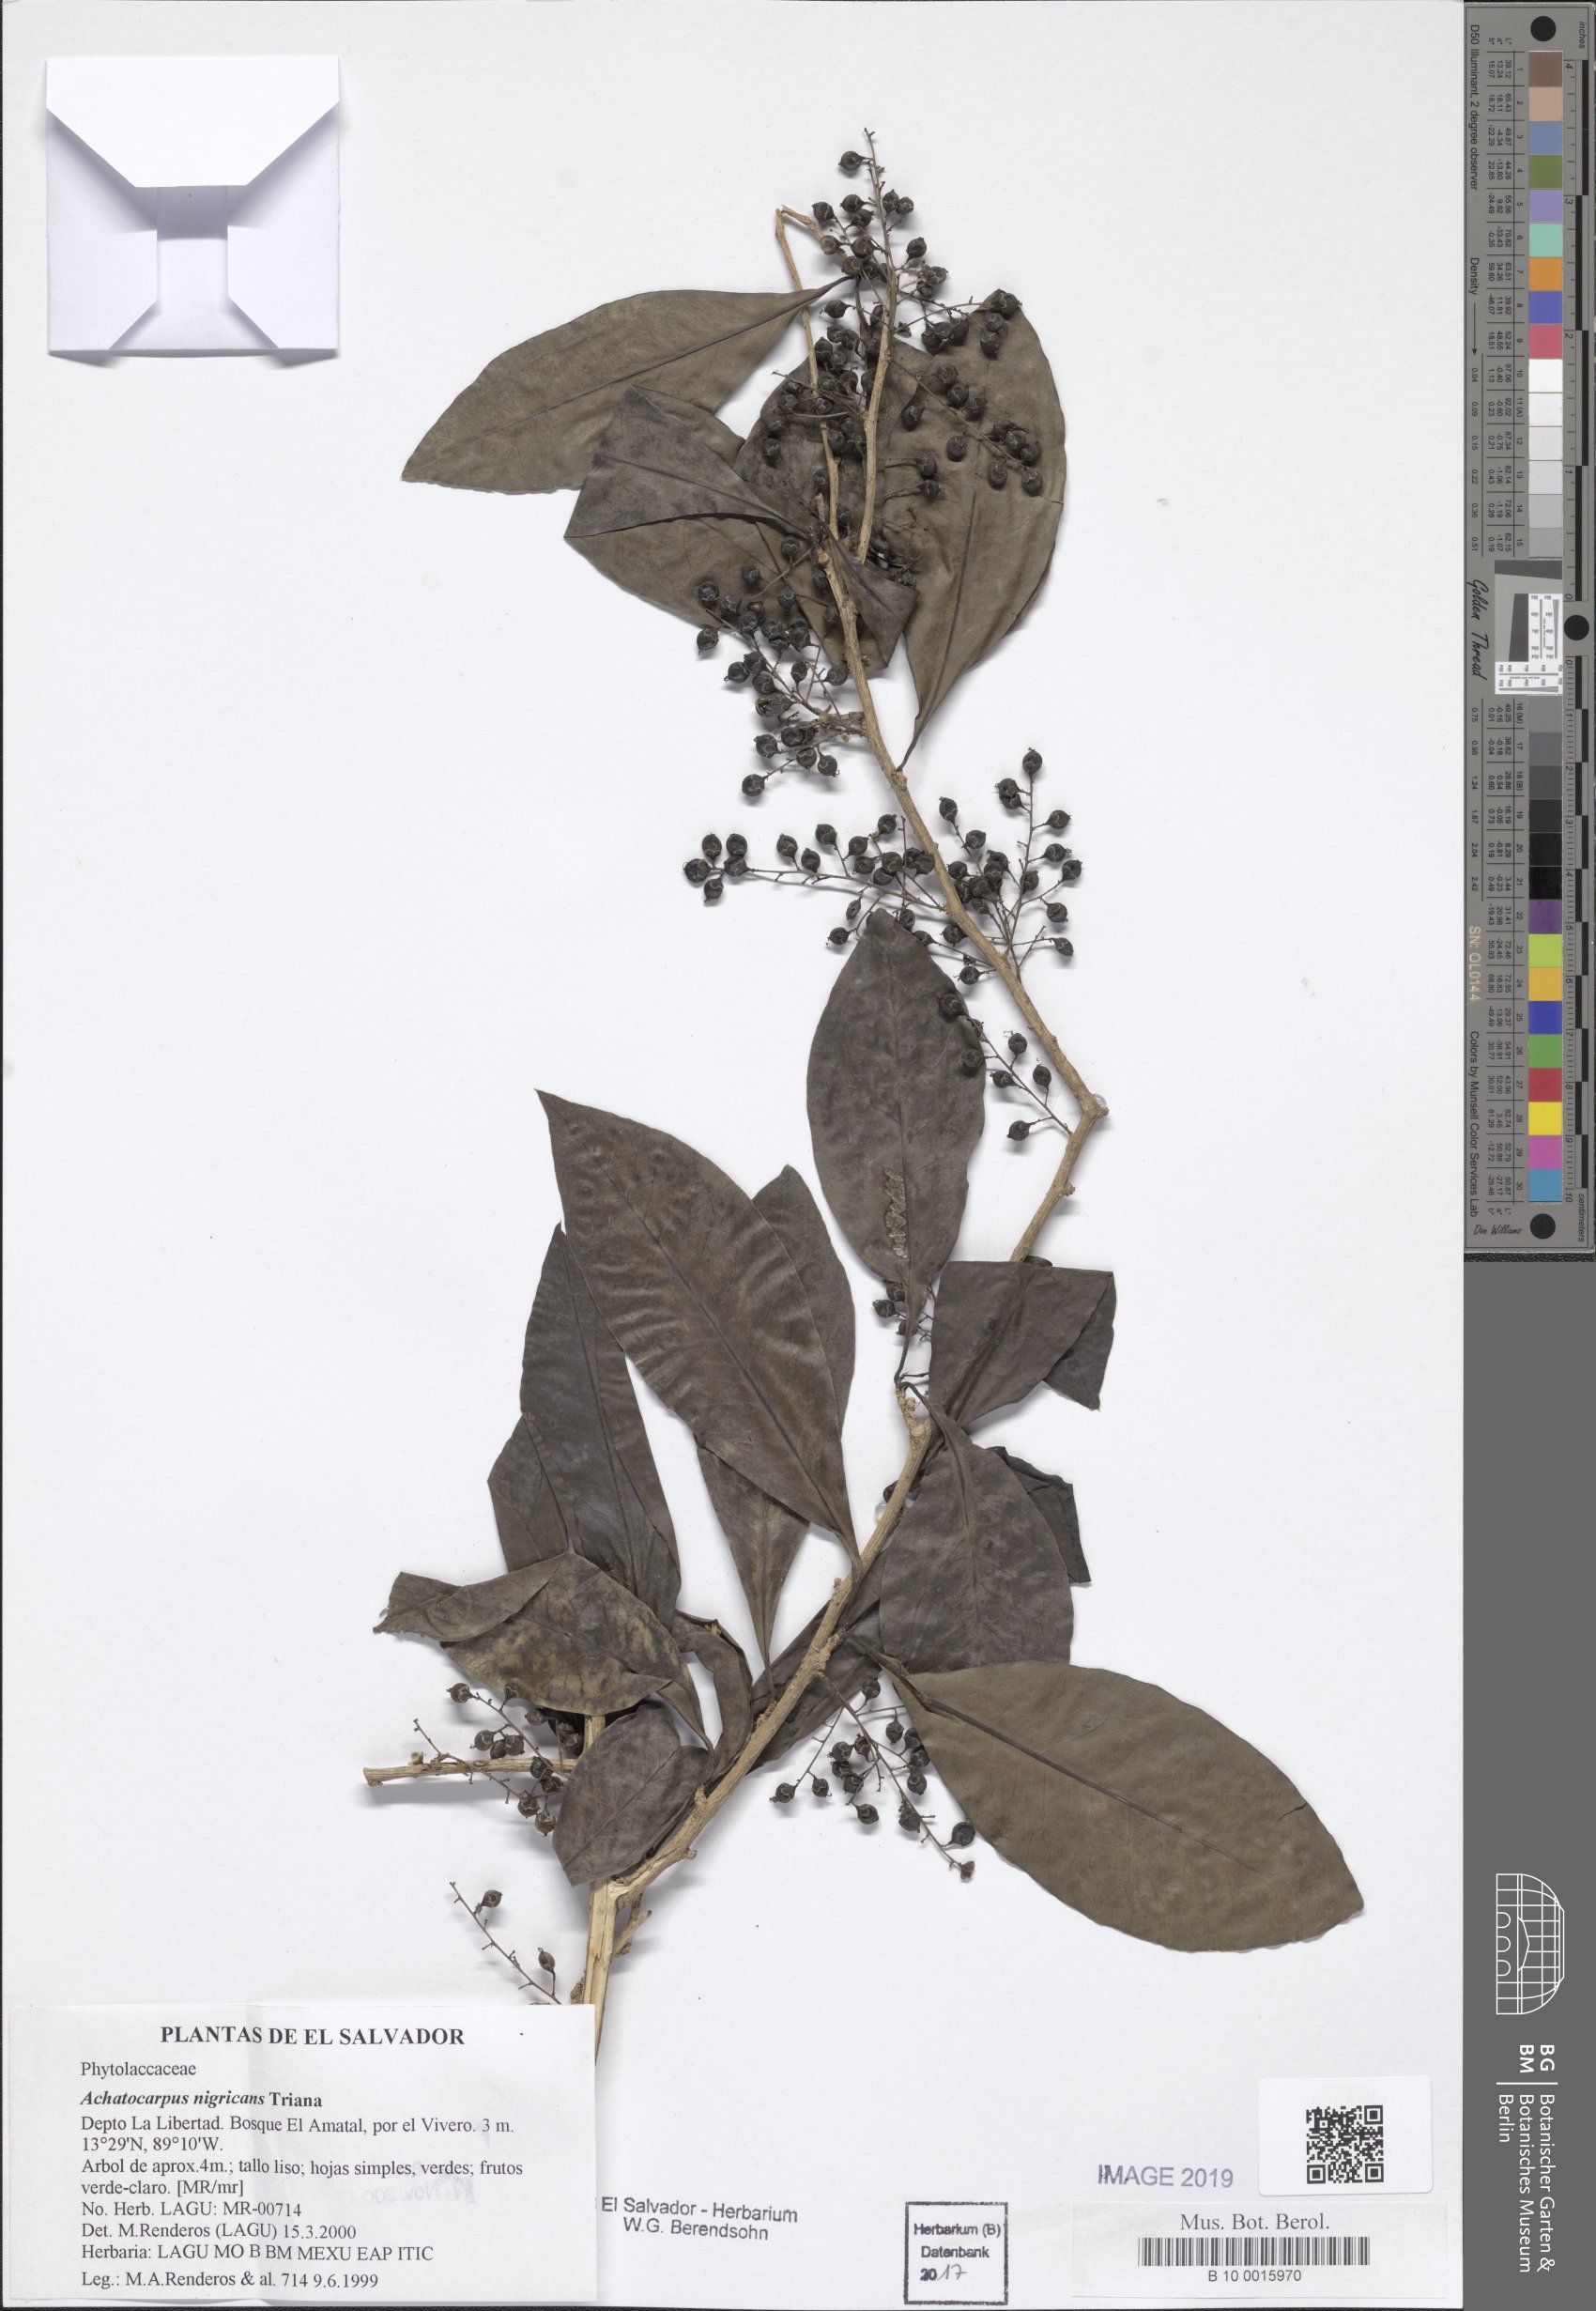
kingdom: Plantae
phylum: Tracheophyta
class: Magnoliopsida
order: Caryophyllales
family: Achatocarpaceae
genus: Achatocarpus
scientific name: Achatocarpus nigricans
